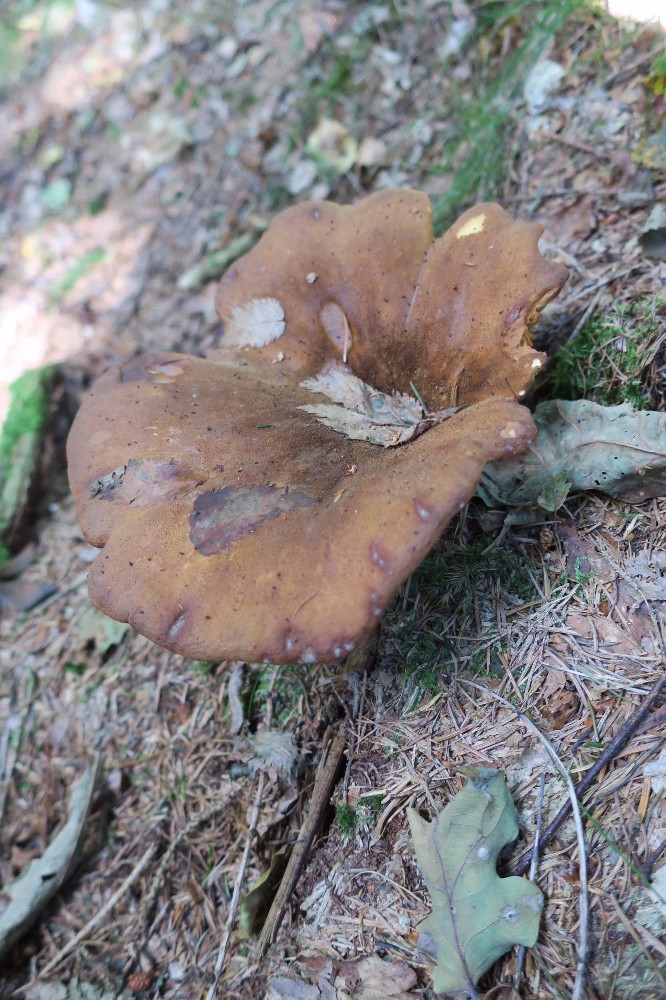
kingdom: Fungi
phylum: Basidiomycota
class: Agaricomycetes
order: Boletales
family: Tapinellaceae
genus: Tapinella
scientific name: Tapinella atrotomentosa
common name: sortfiltet viftesvamp
